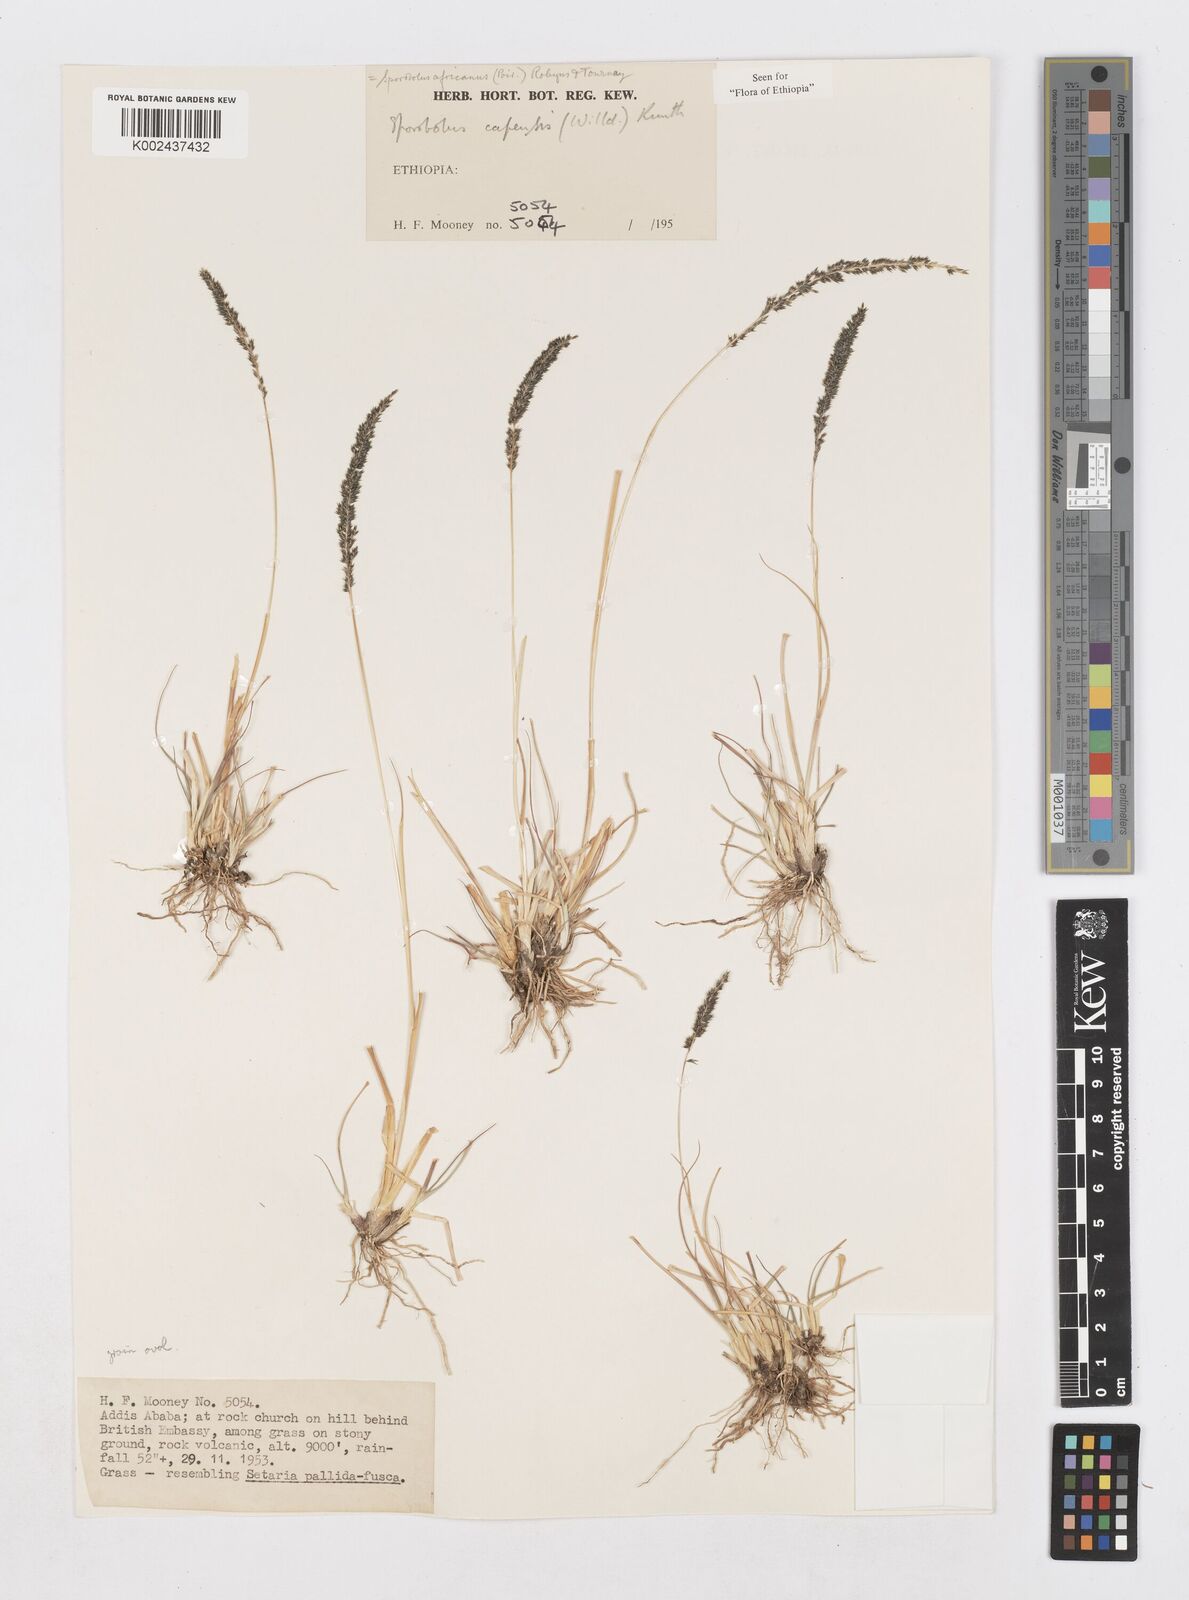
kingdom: Plantae
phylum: Tracheophyta
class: Liliopsida
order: Poales
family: Poaceae
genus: Sporobolus
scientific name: Sporobolus africanus
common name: African dropseed
